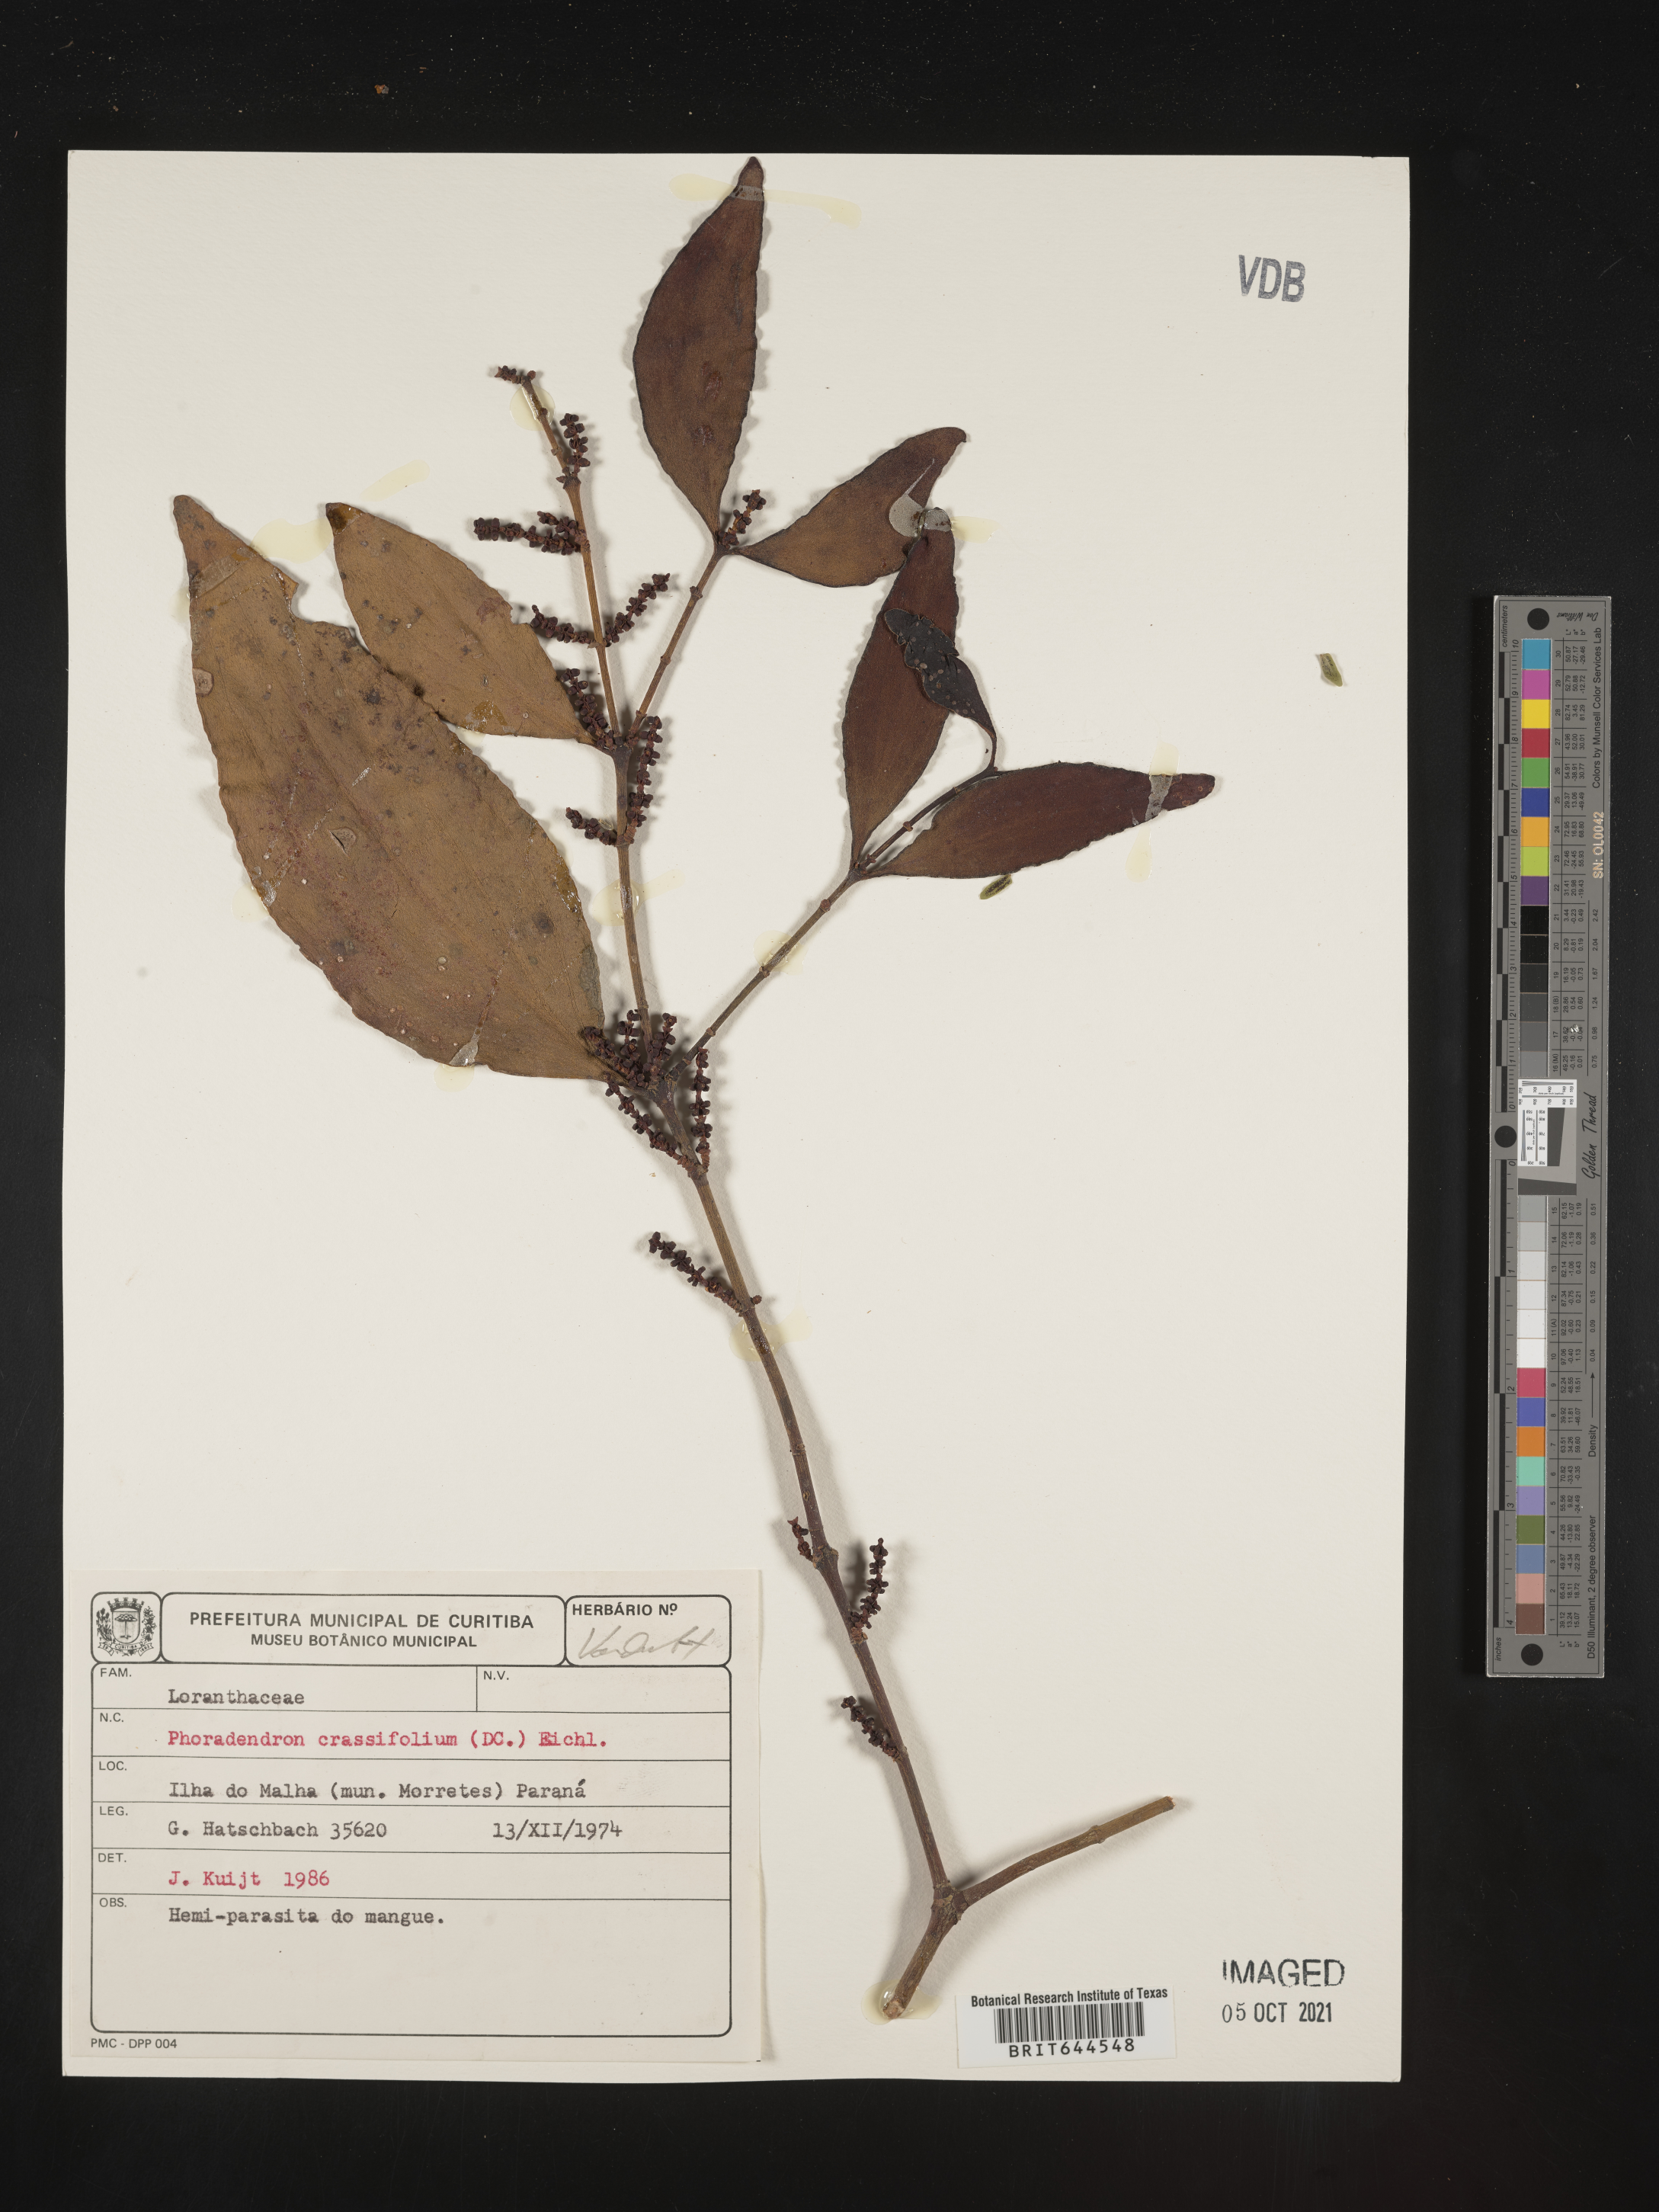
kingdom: Plantae
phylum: Tracheophyta
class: Magnoliopsida
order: Santalales
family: Viscaceae
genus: Phoradendron
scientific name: Phoradendron
